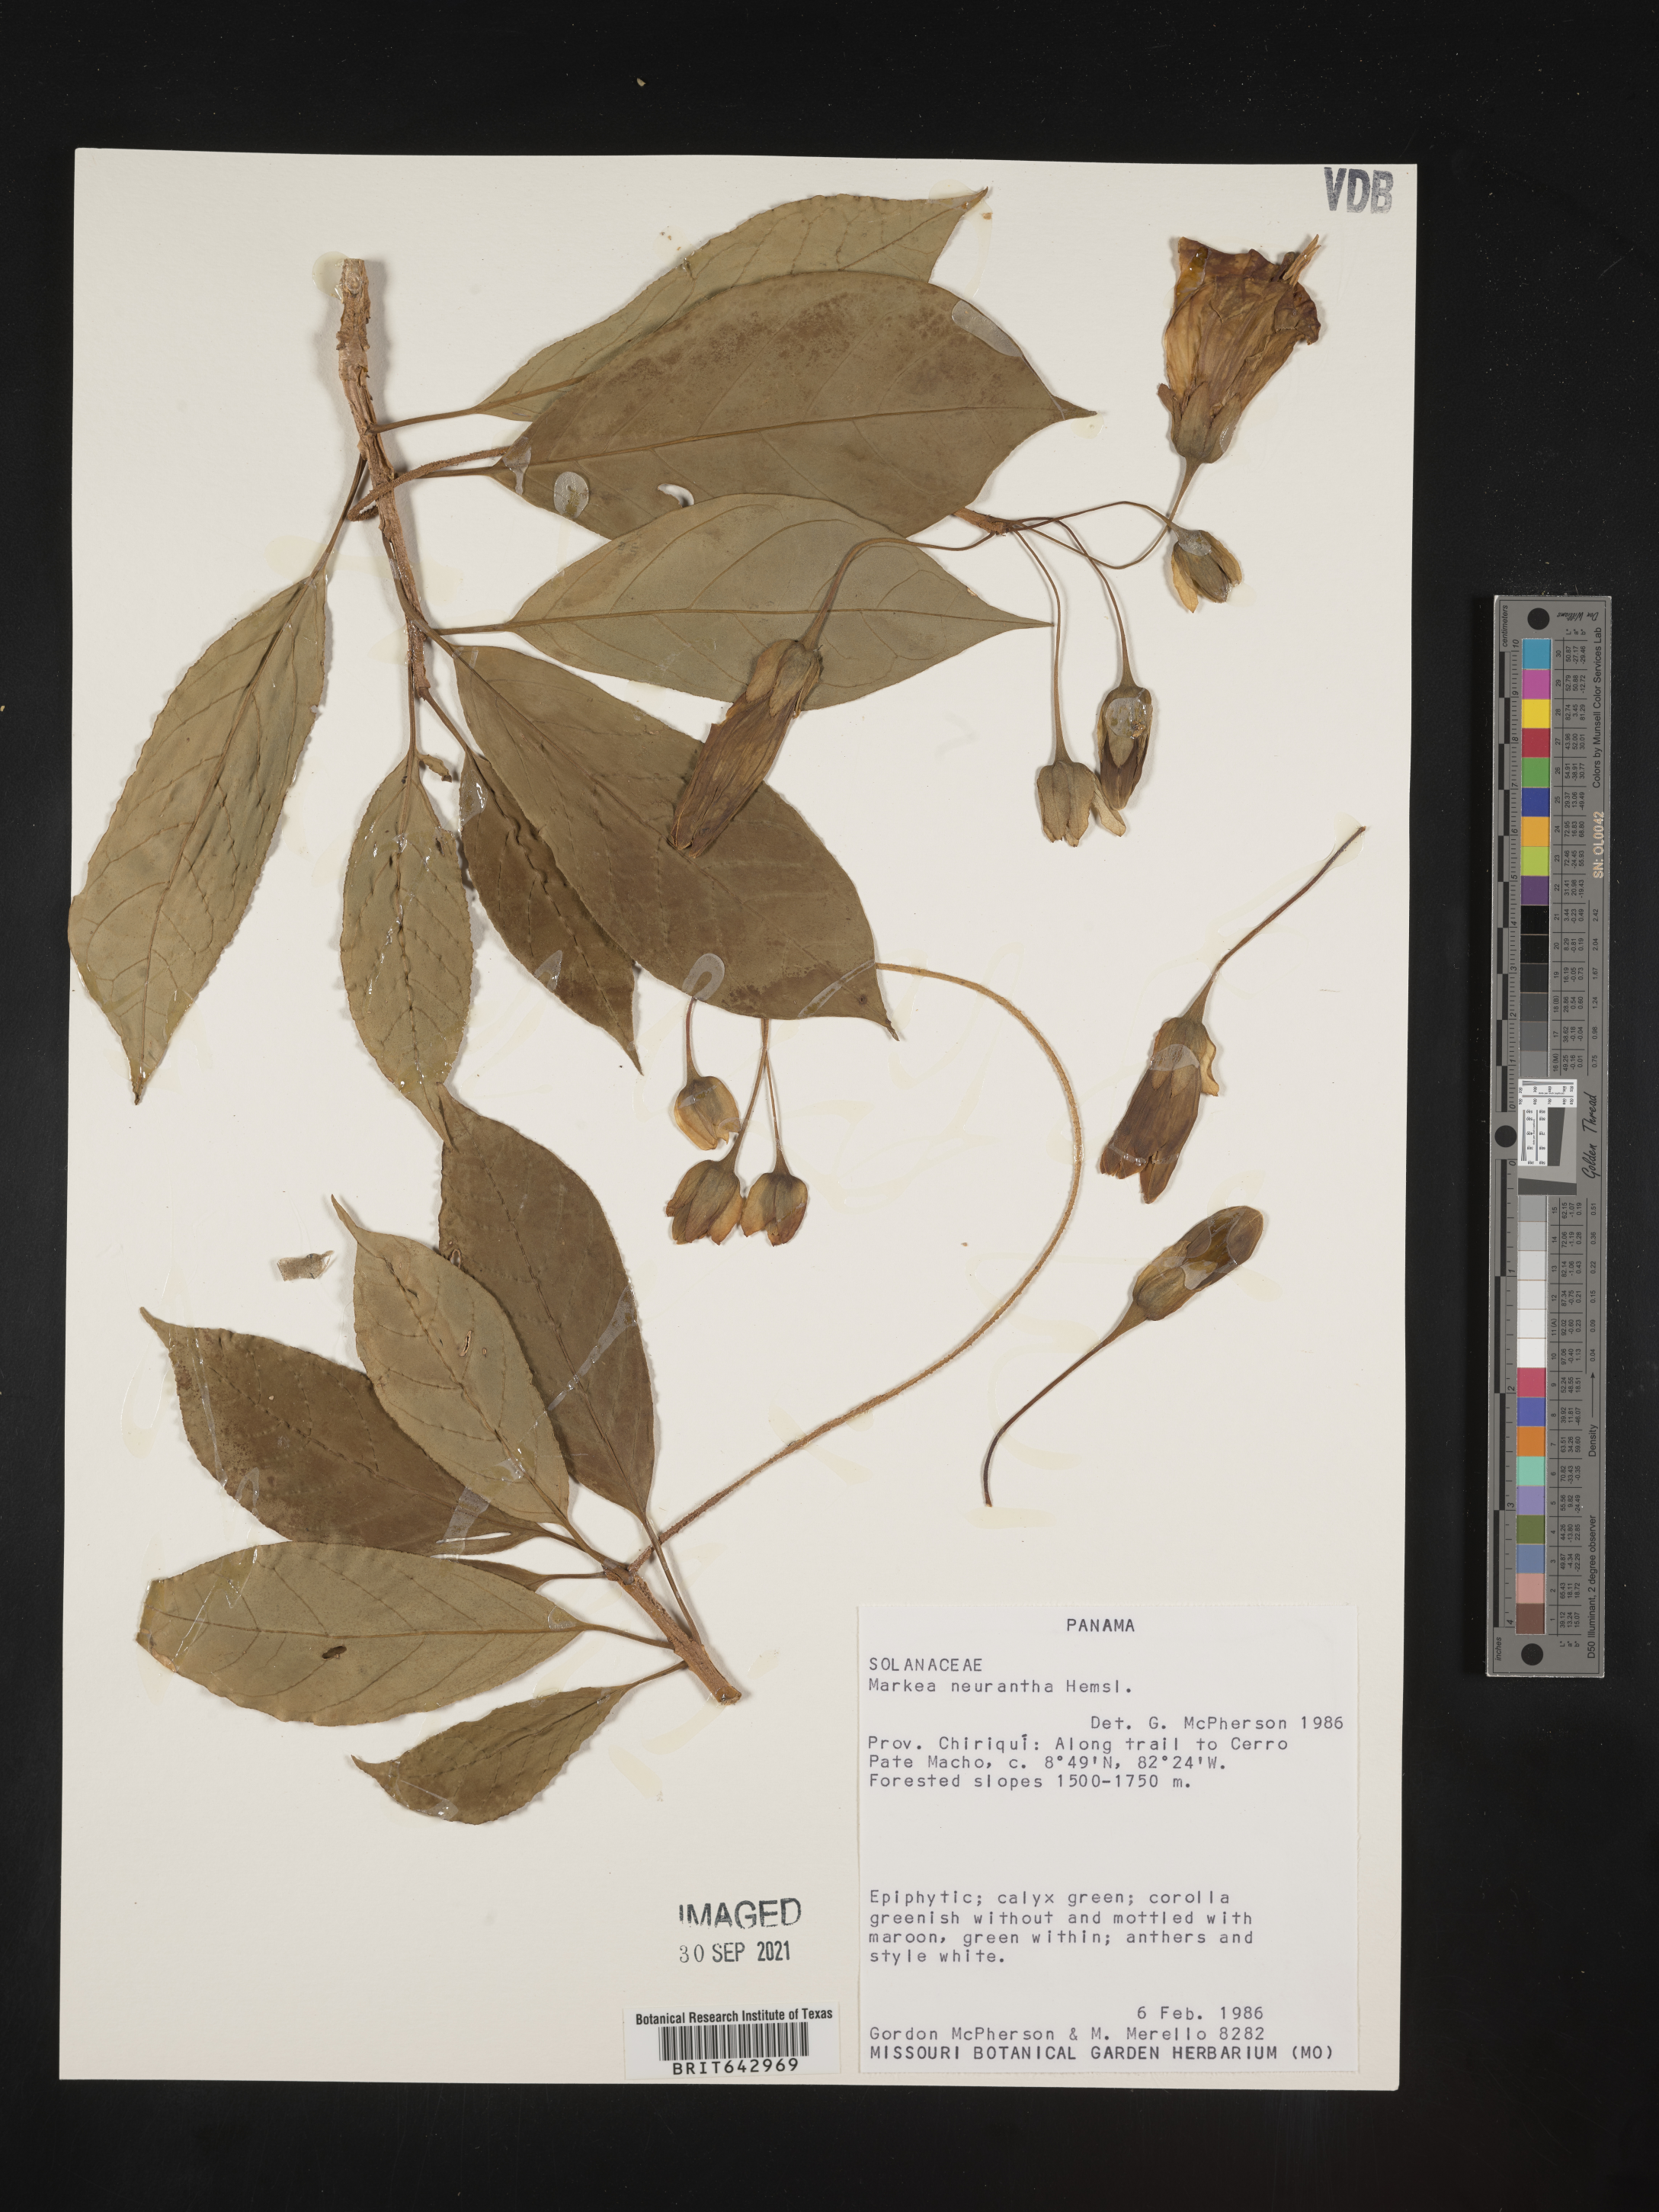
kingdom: Plantae
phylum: Tracheophyta
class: Magnoliopsida
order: Solanales
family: Solanaceae
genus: Markea
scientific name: Markea
